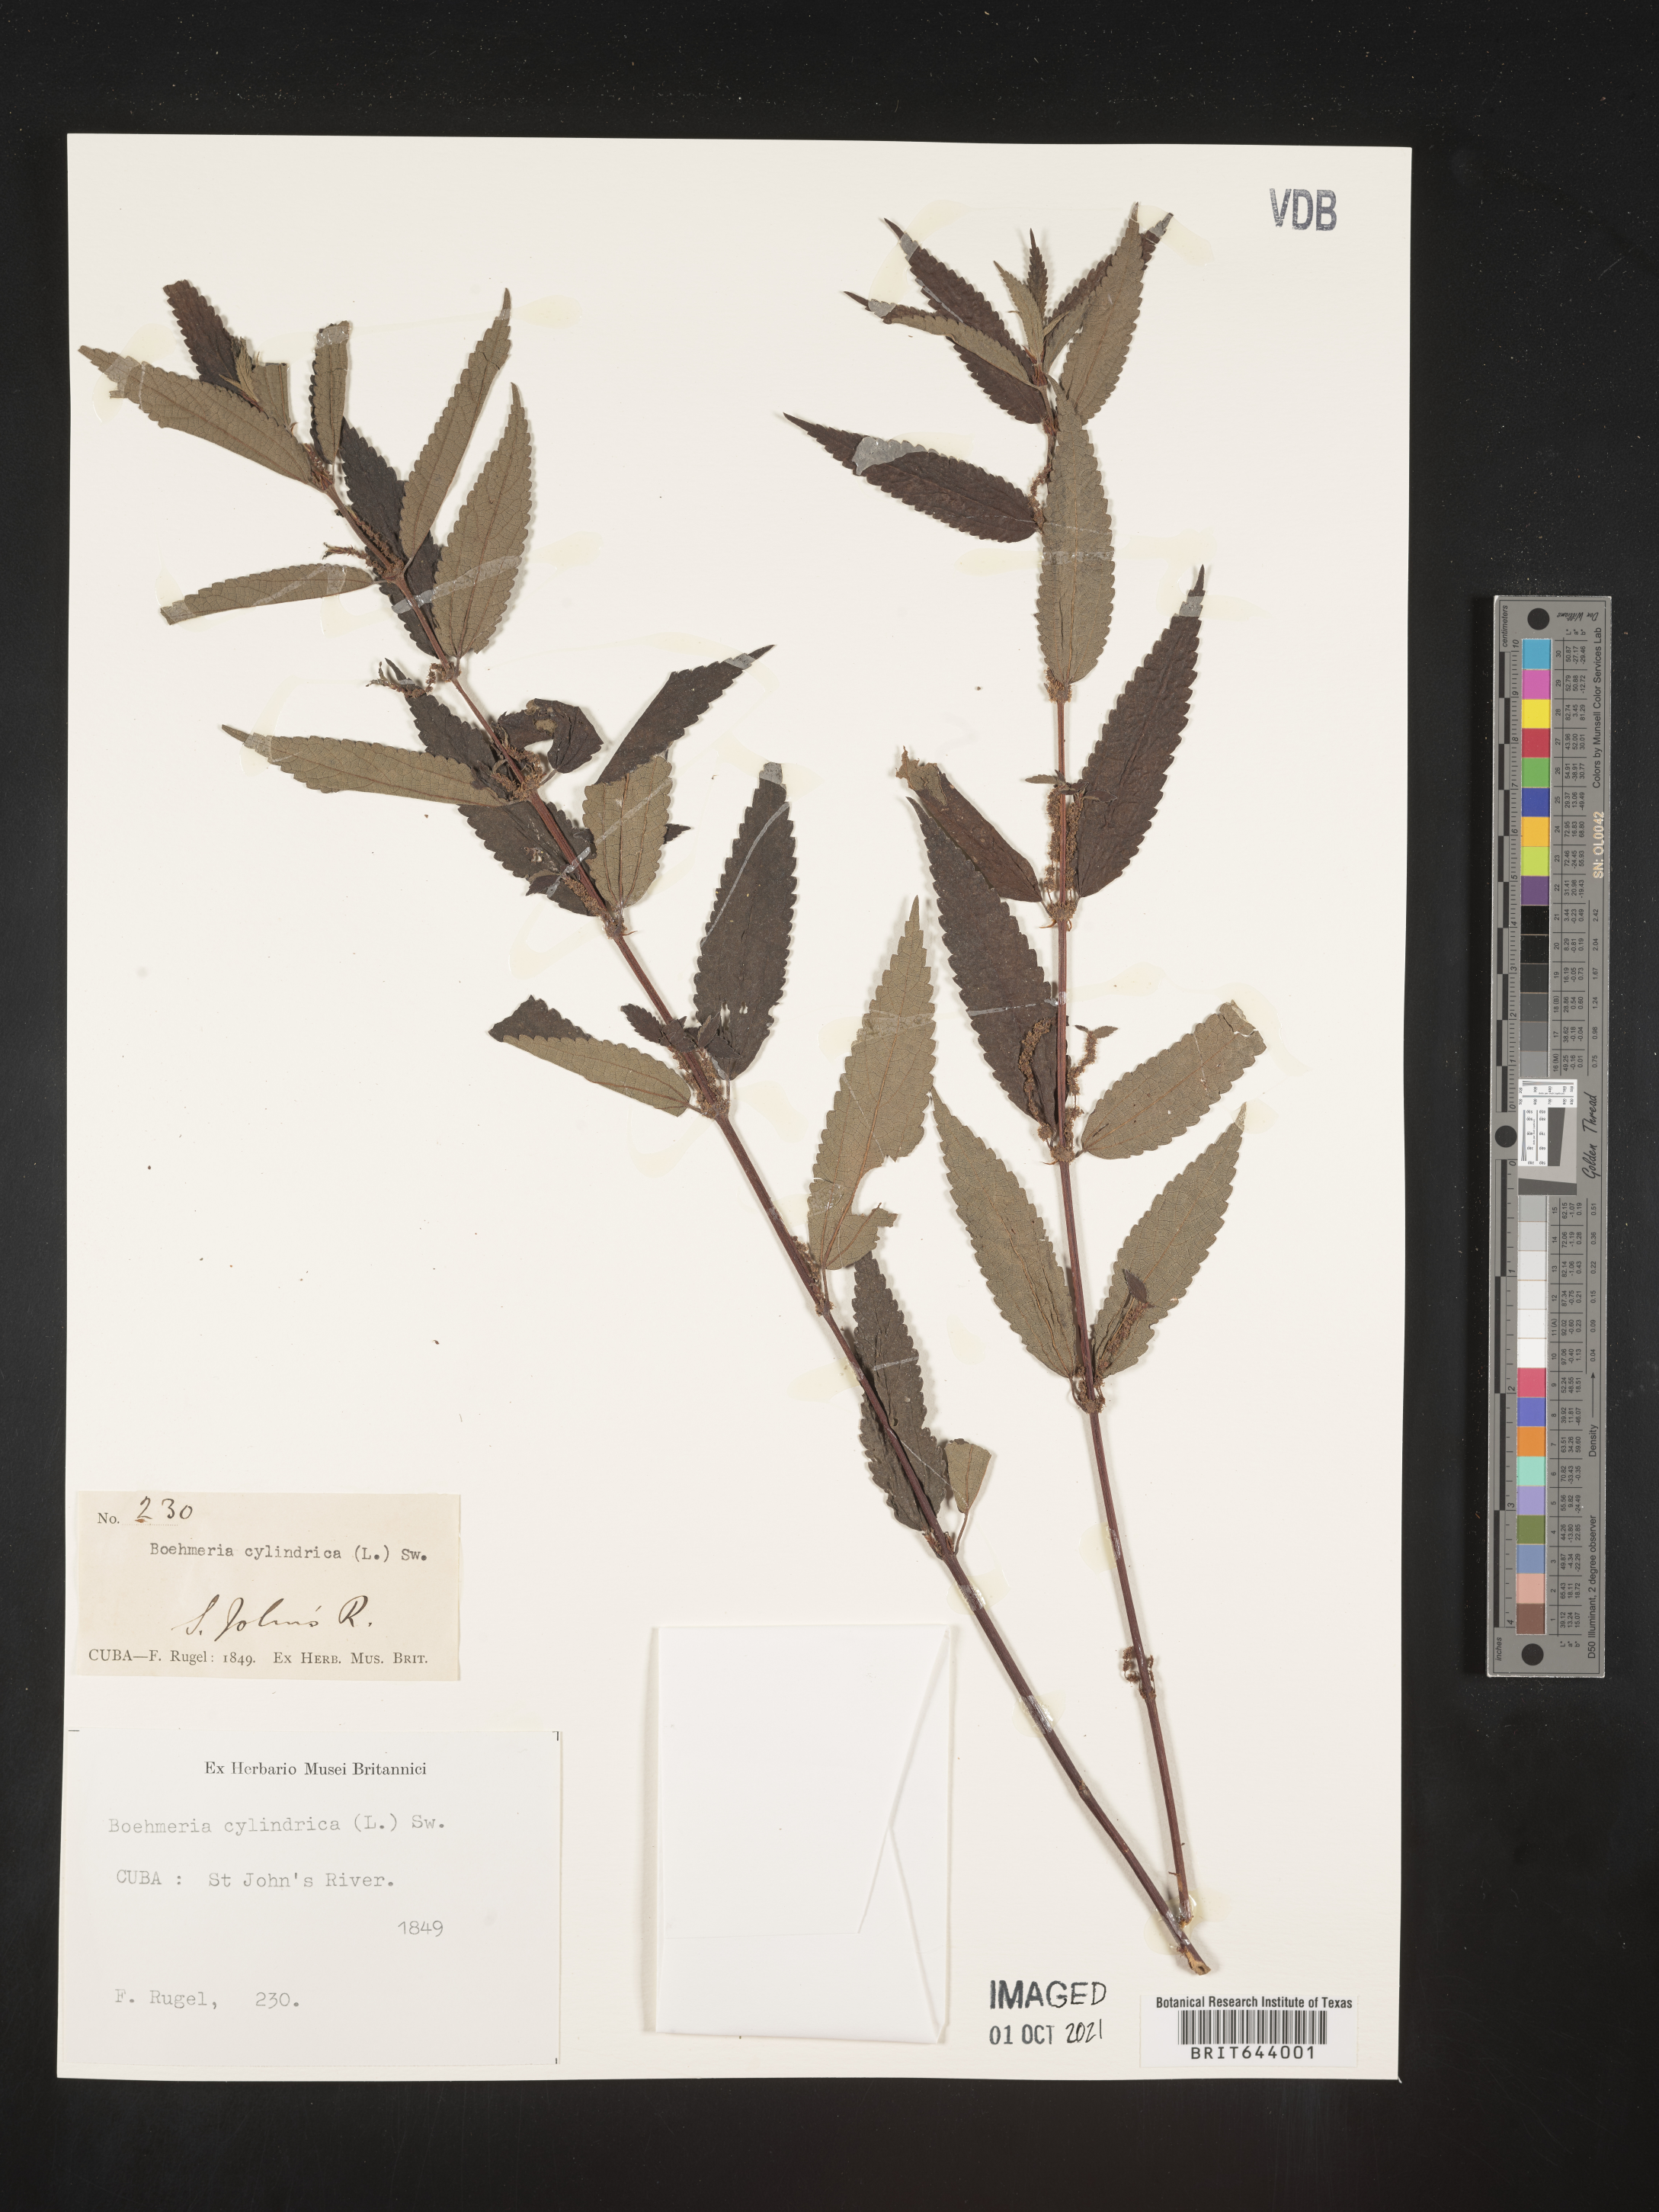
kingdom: Plantae
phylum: Tracheophyta
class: Magnoliopsida
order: Rosales
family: Urticaceae
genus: Boehmeria
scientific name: Boehmeria
